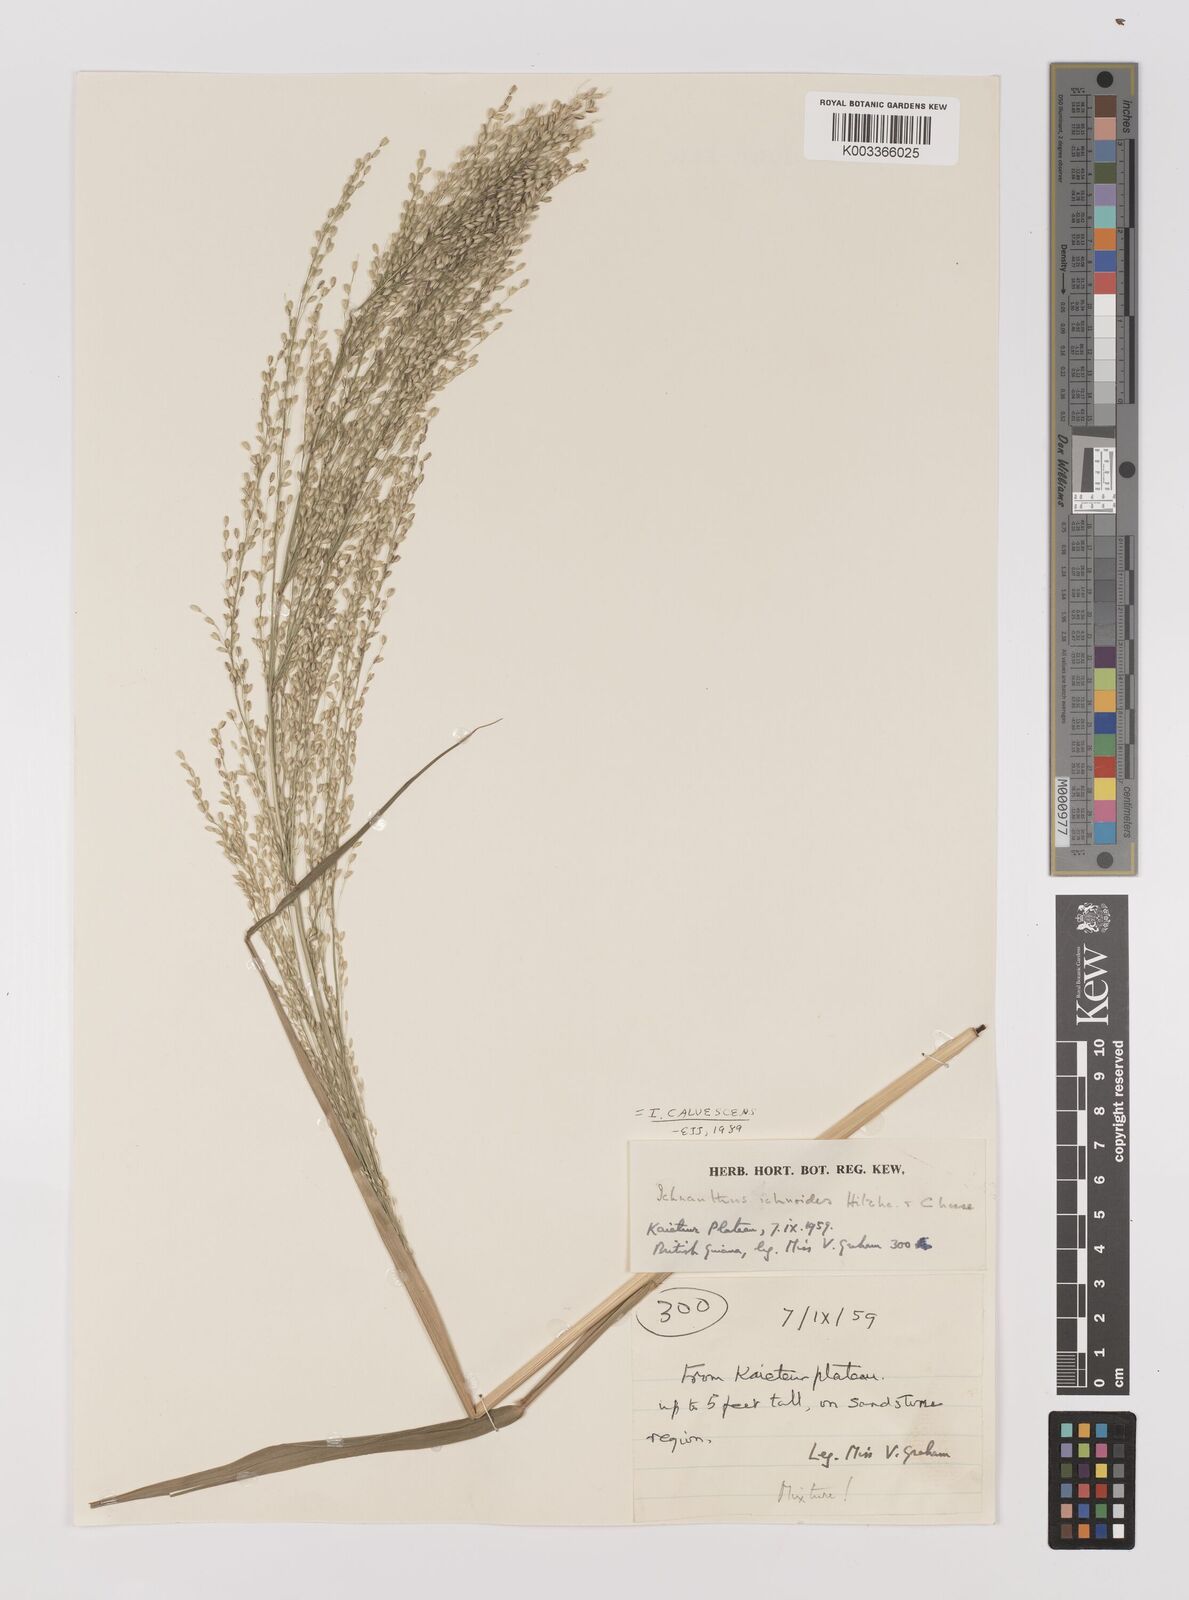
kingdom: Plantae
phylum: Tracheophyta
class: Liliopsida
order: Poales
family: Poaceae
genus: Ichnanthus
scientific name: Ichnanthus calvescens
